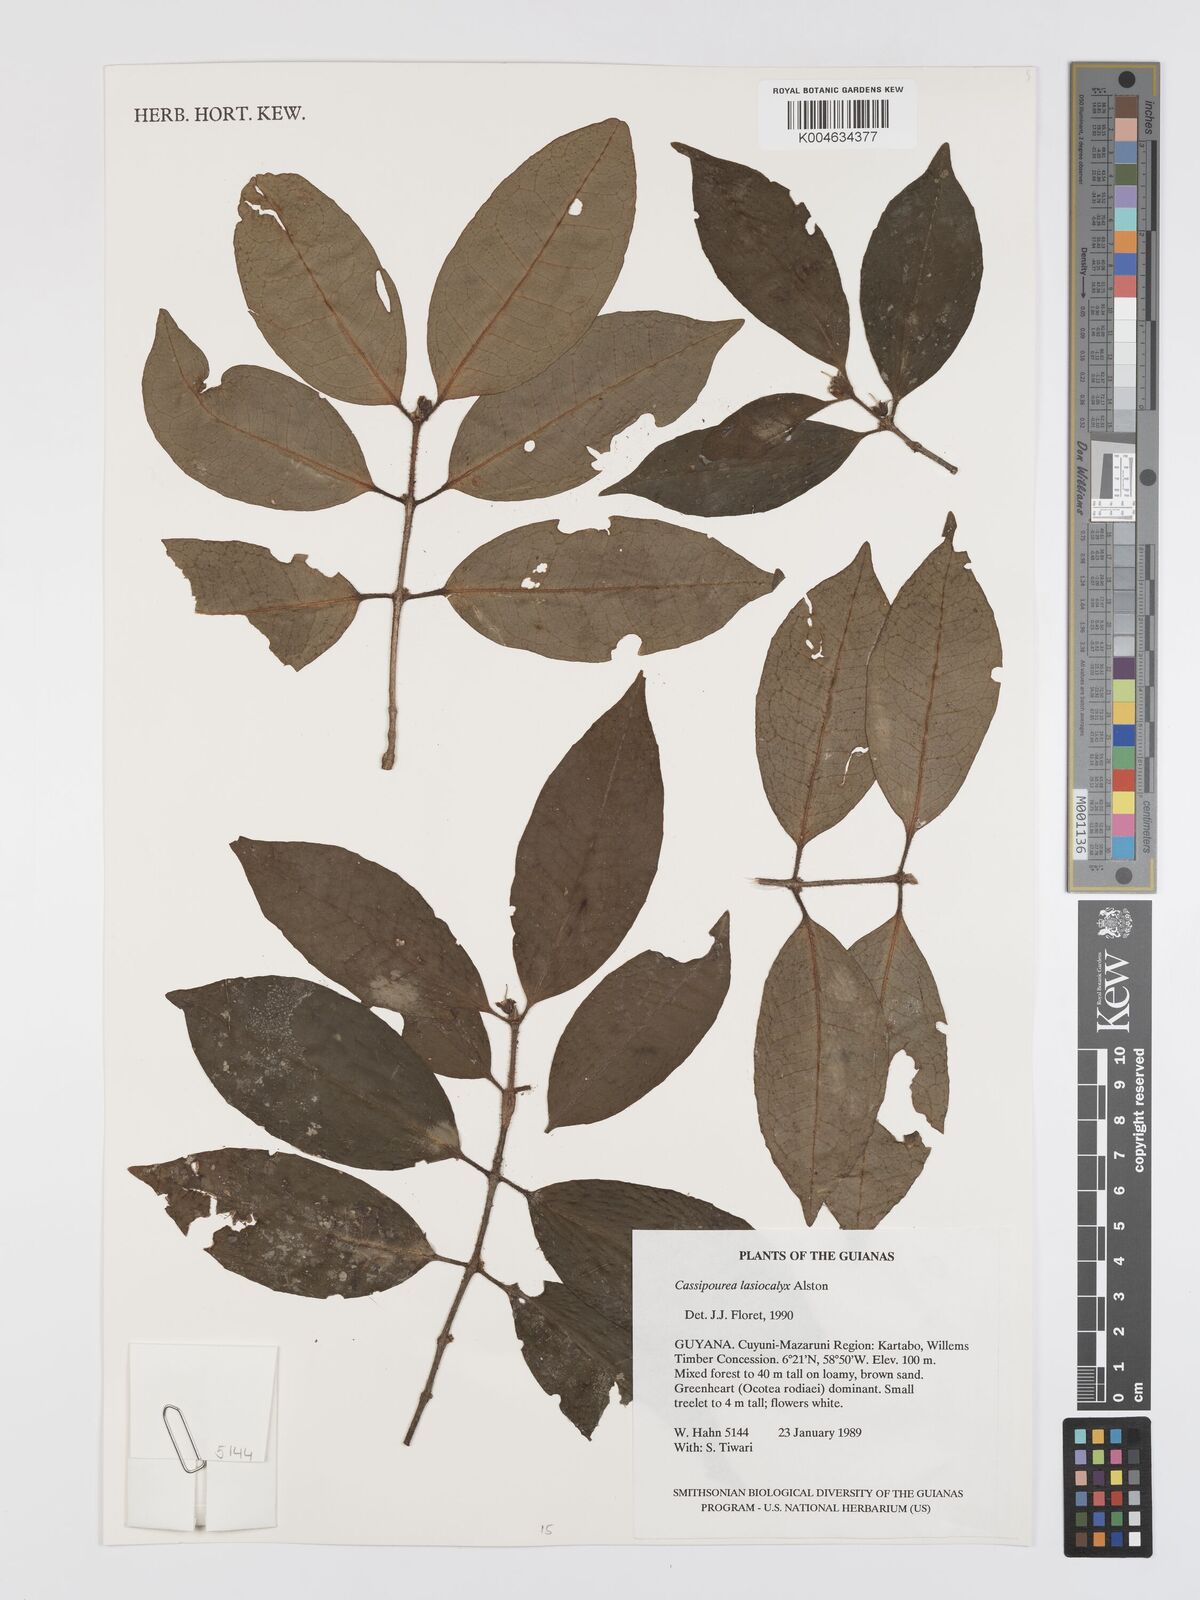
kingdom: Plantae
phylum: Tracheophyta
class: Magnoliopsida
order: Malpighiales
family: Rhizophoraceae
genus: Cassipourea
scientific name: Cassipourea lasiocalyx
